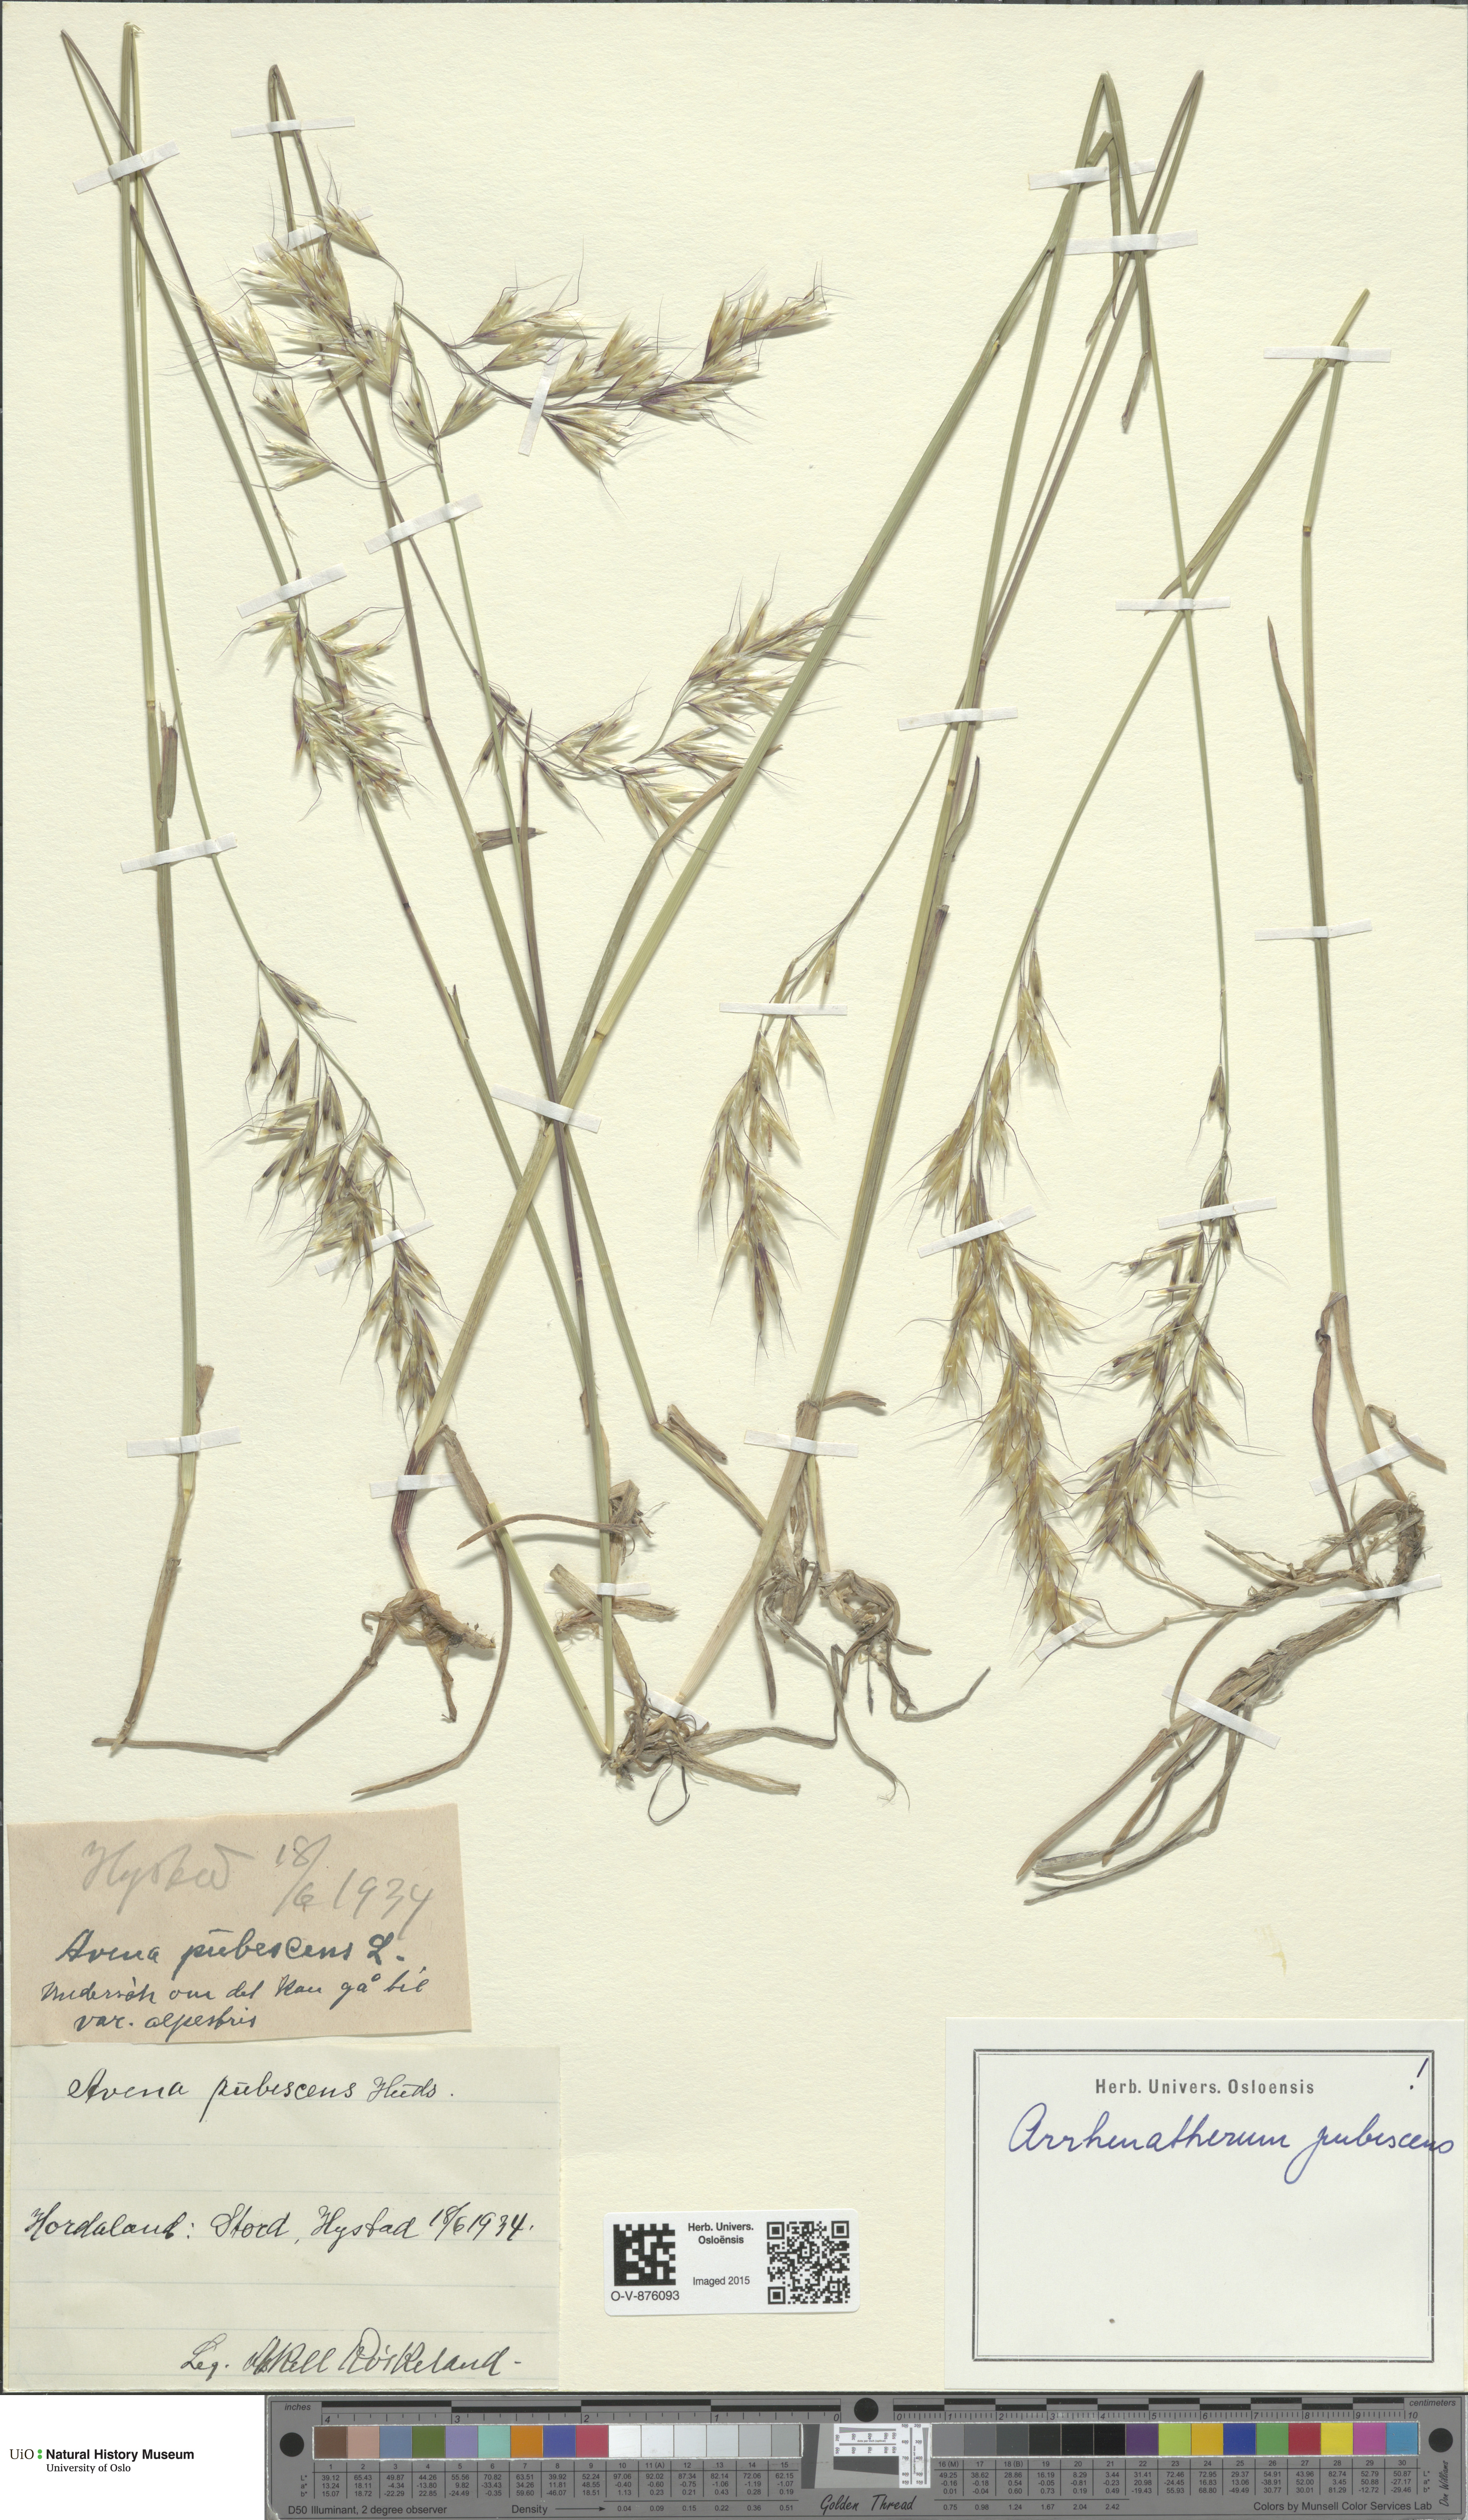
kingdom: Plantae
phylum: Tracheophyta
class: Liliopsida
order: Poales
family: Poaceae
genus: Avenula
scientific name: Avenula pubescens
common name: Downy alpine oatgrass
